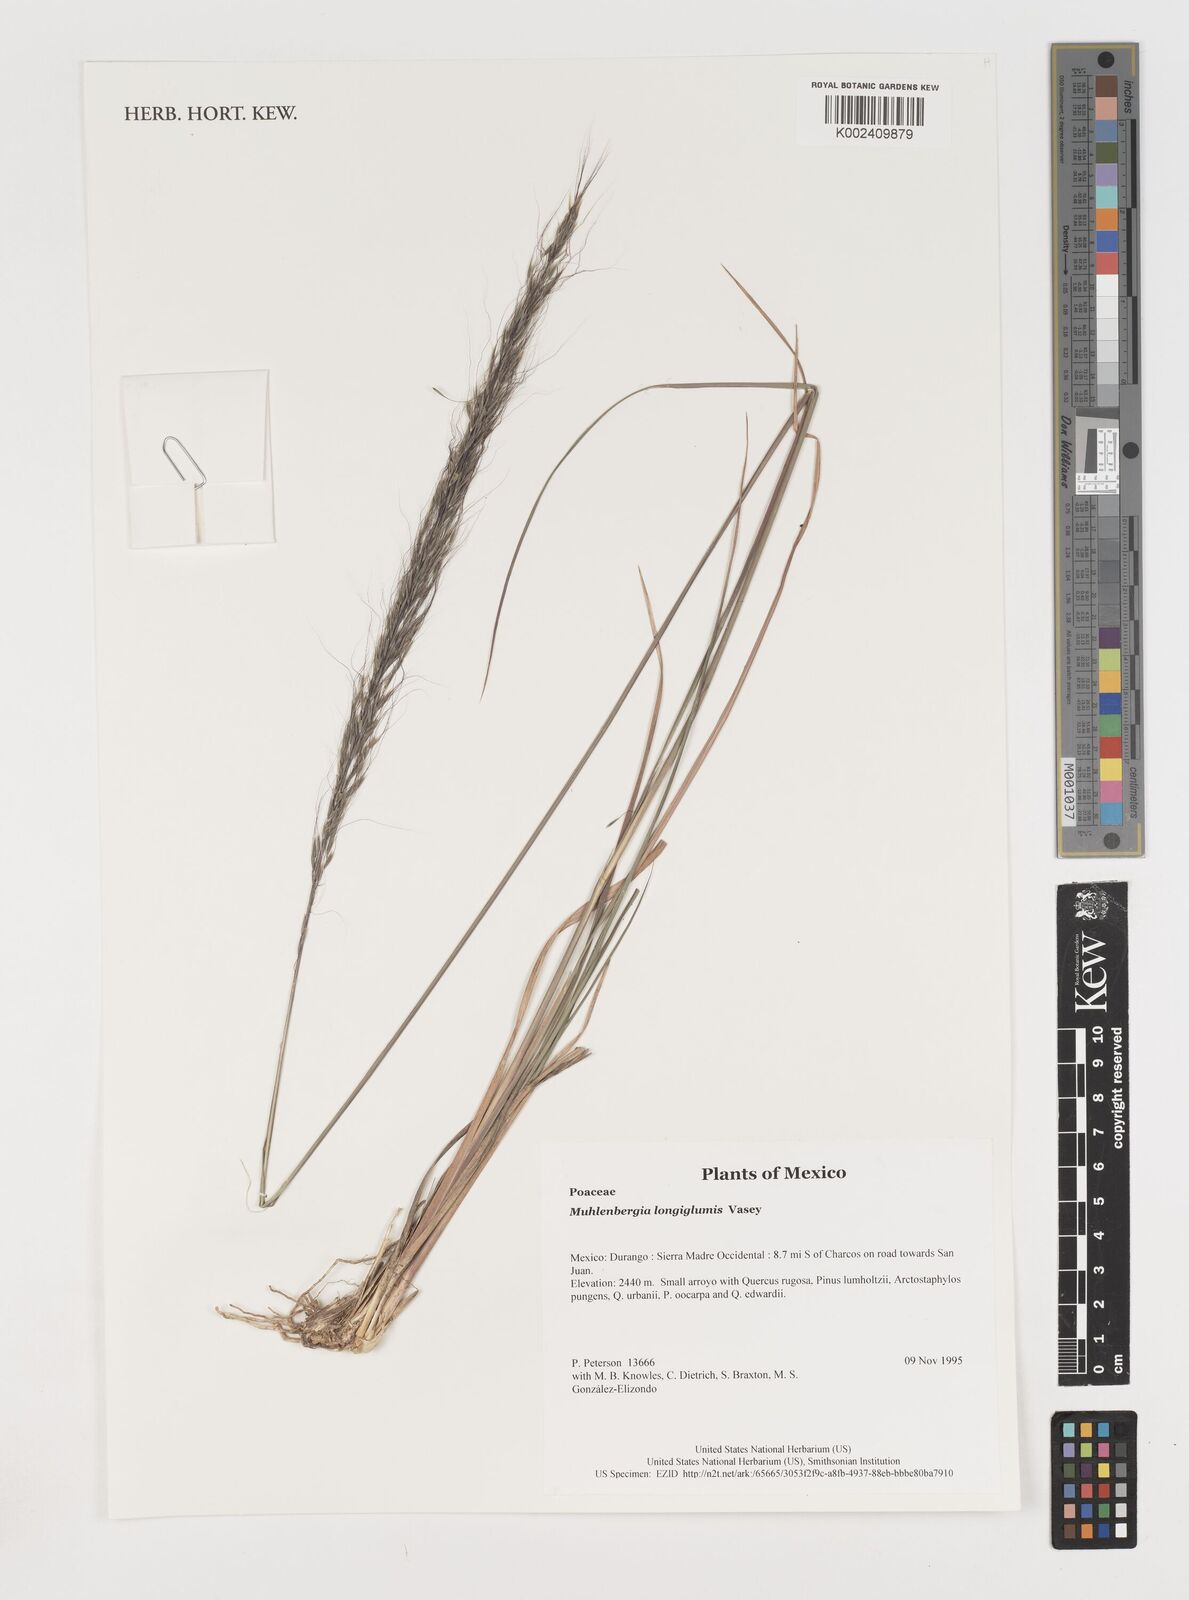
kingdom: Plantae
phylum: Tracheophyta
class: Liliopsida
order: Poales
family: Poaceae
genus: Muhlenbergia
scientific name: Muhlenbergia longiglumis
